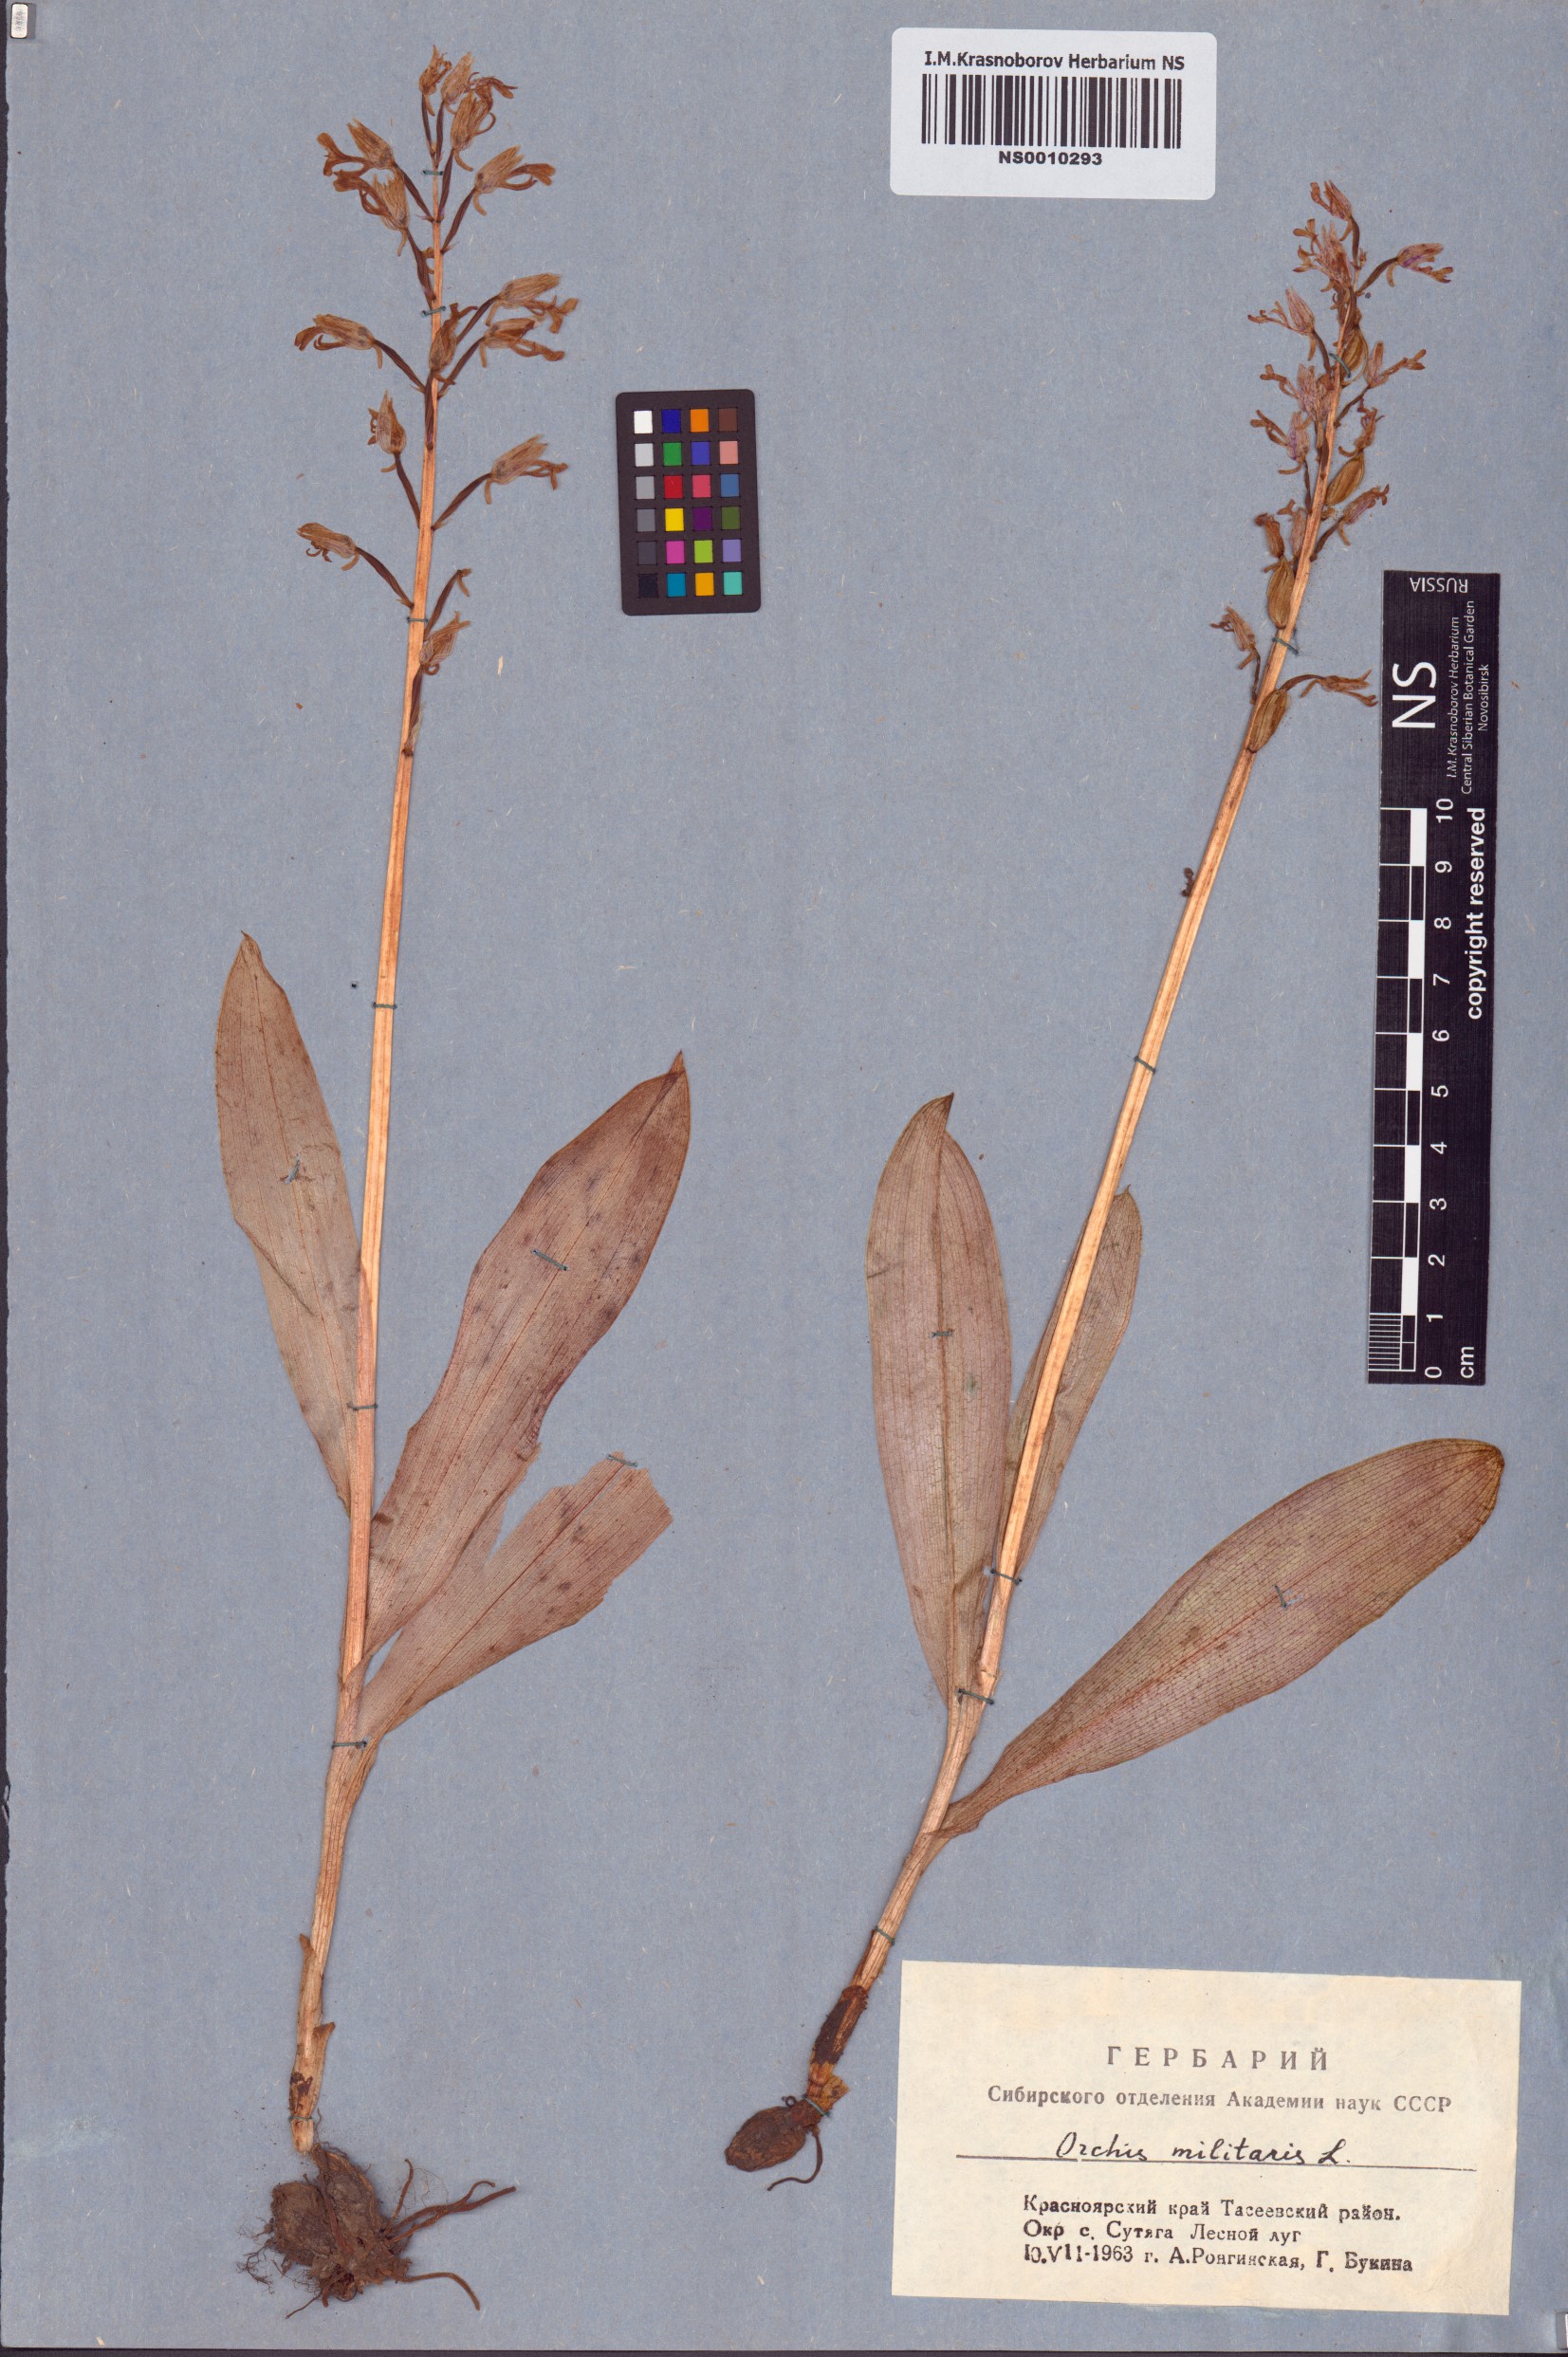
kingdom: Plantae
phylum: Tracheophyta
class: Liliopsida
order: Asparagales
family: Orchidaceae
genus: Orchis
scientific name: Orchis militaris
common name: Military orchid
